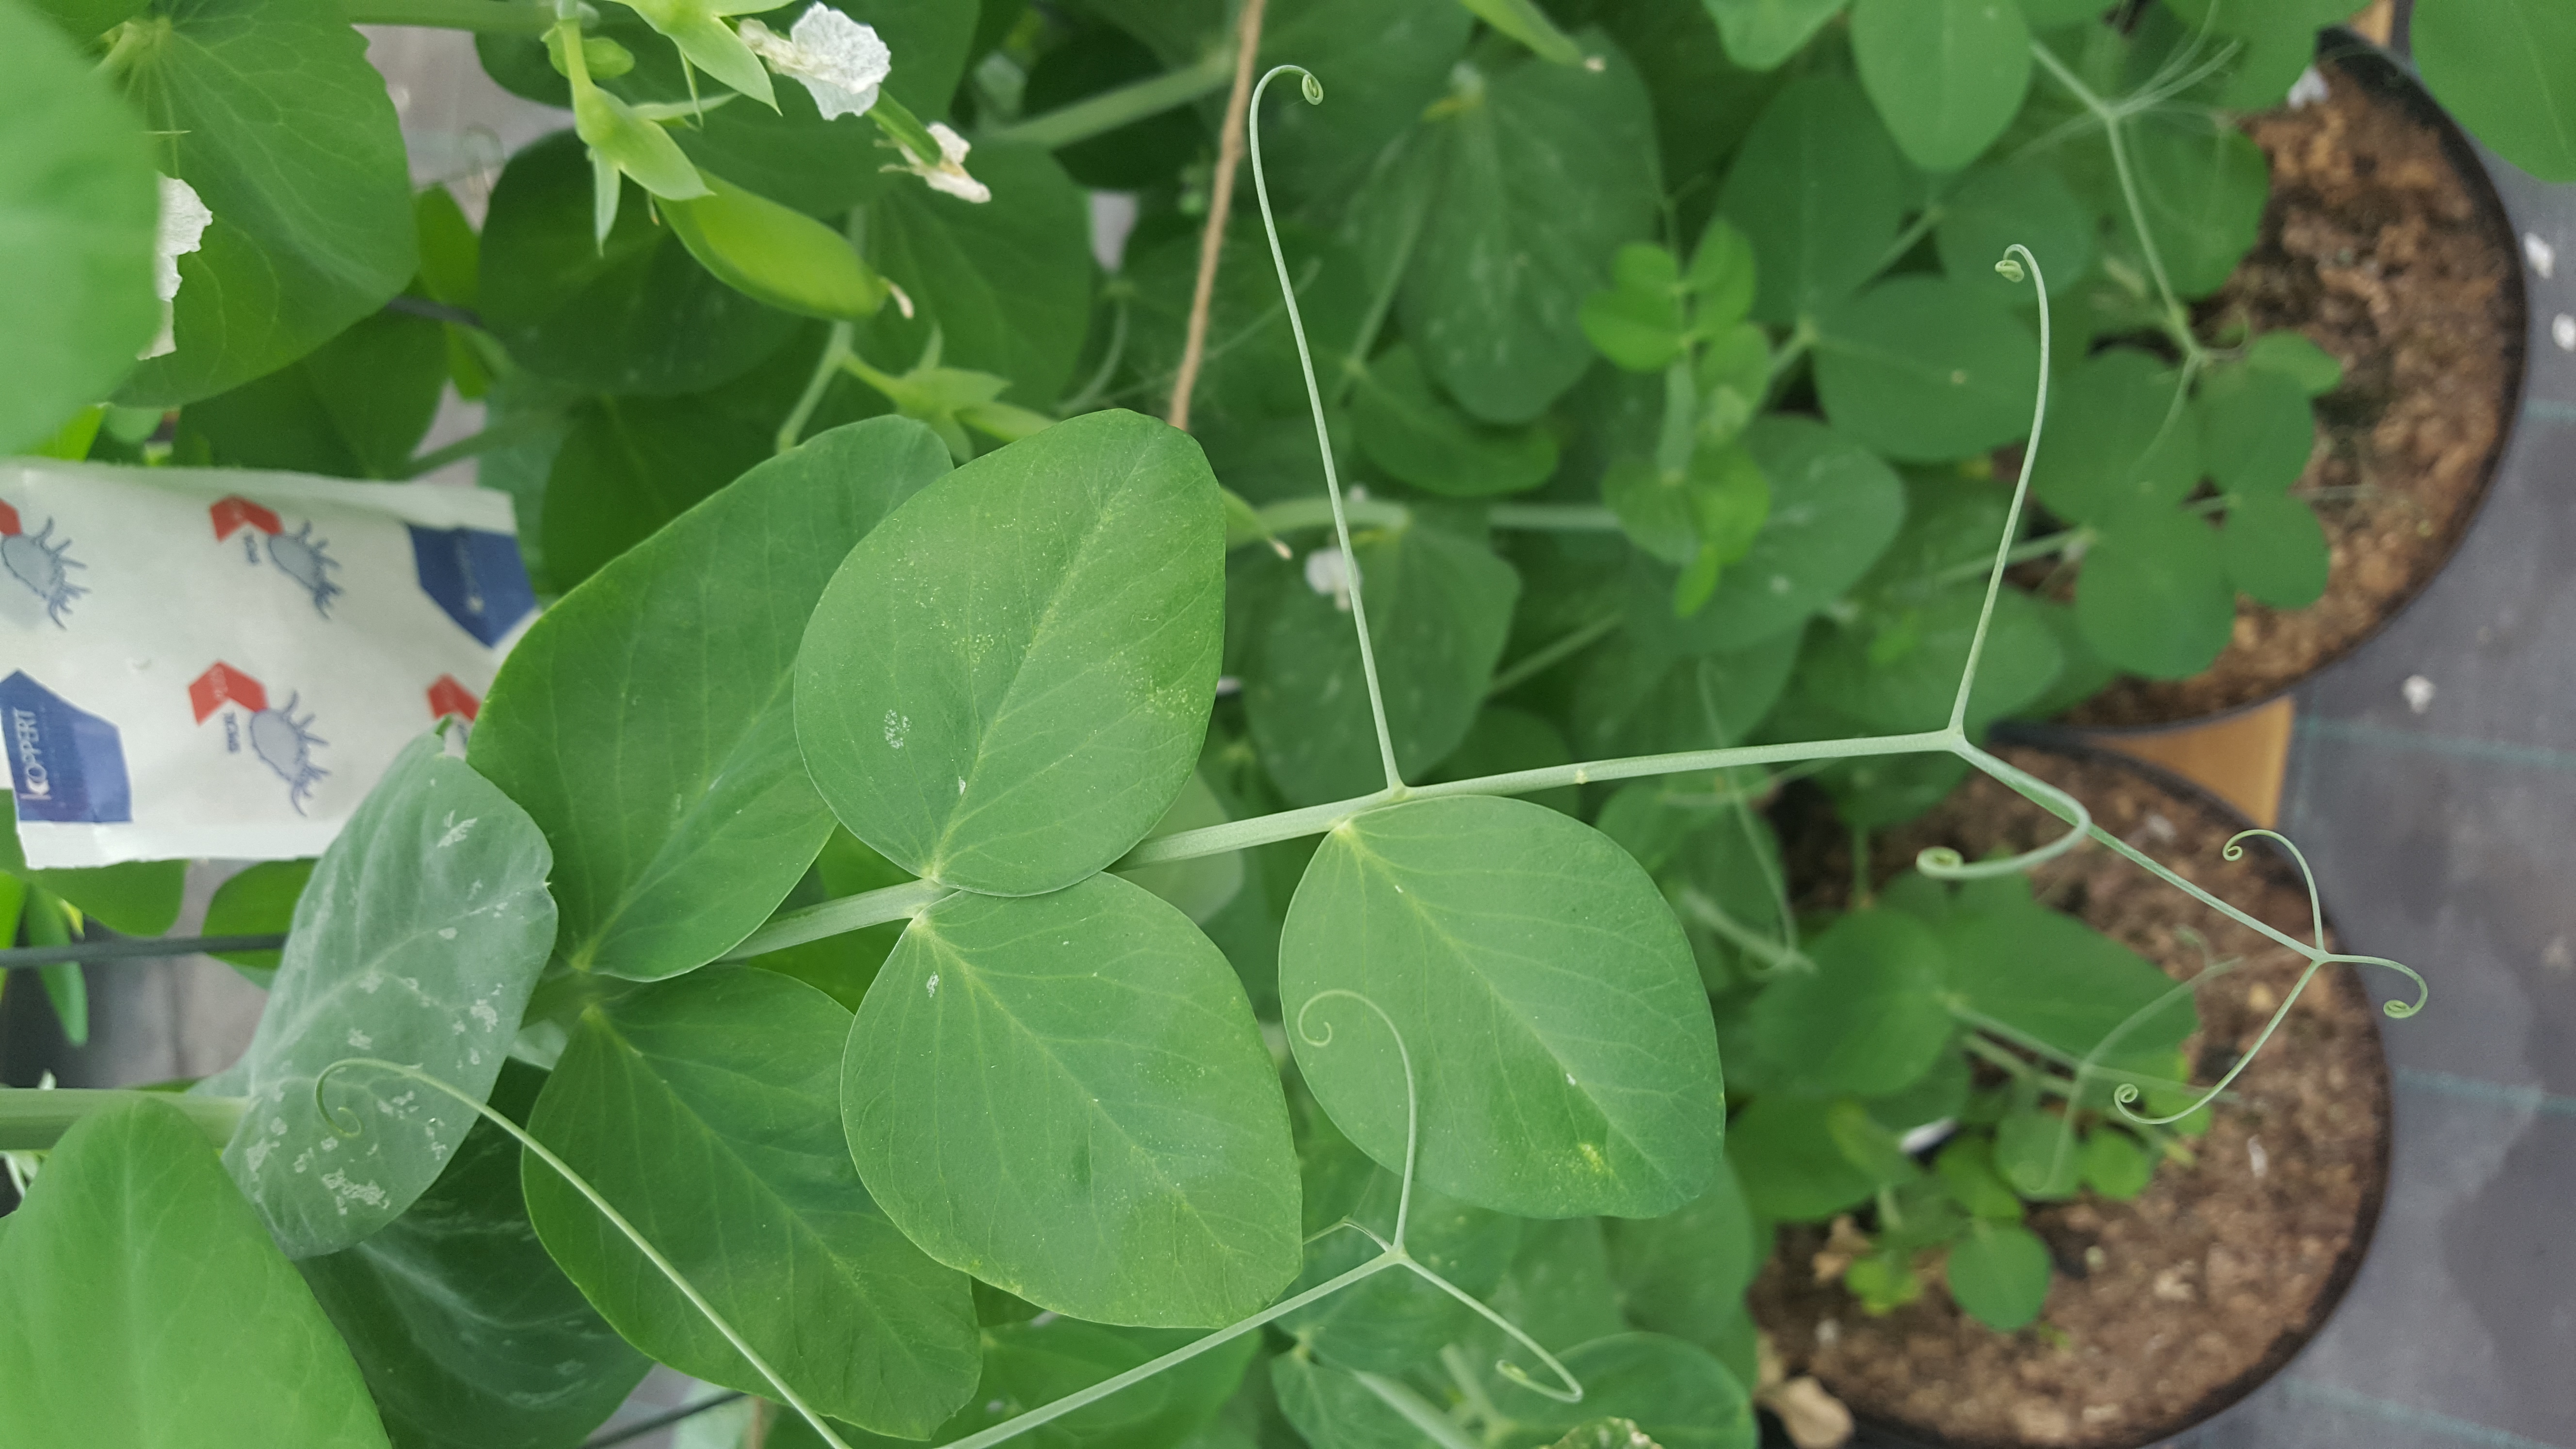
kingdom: Plantae
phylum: Tracheophyta
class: Magnoliopsida
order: Fabales
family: Fabaceae
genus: Lathyrus
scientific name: Lathyrus oleraceus
